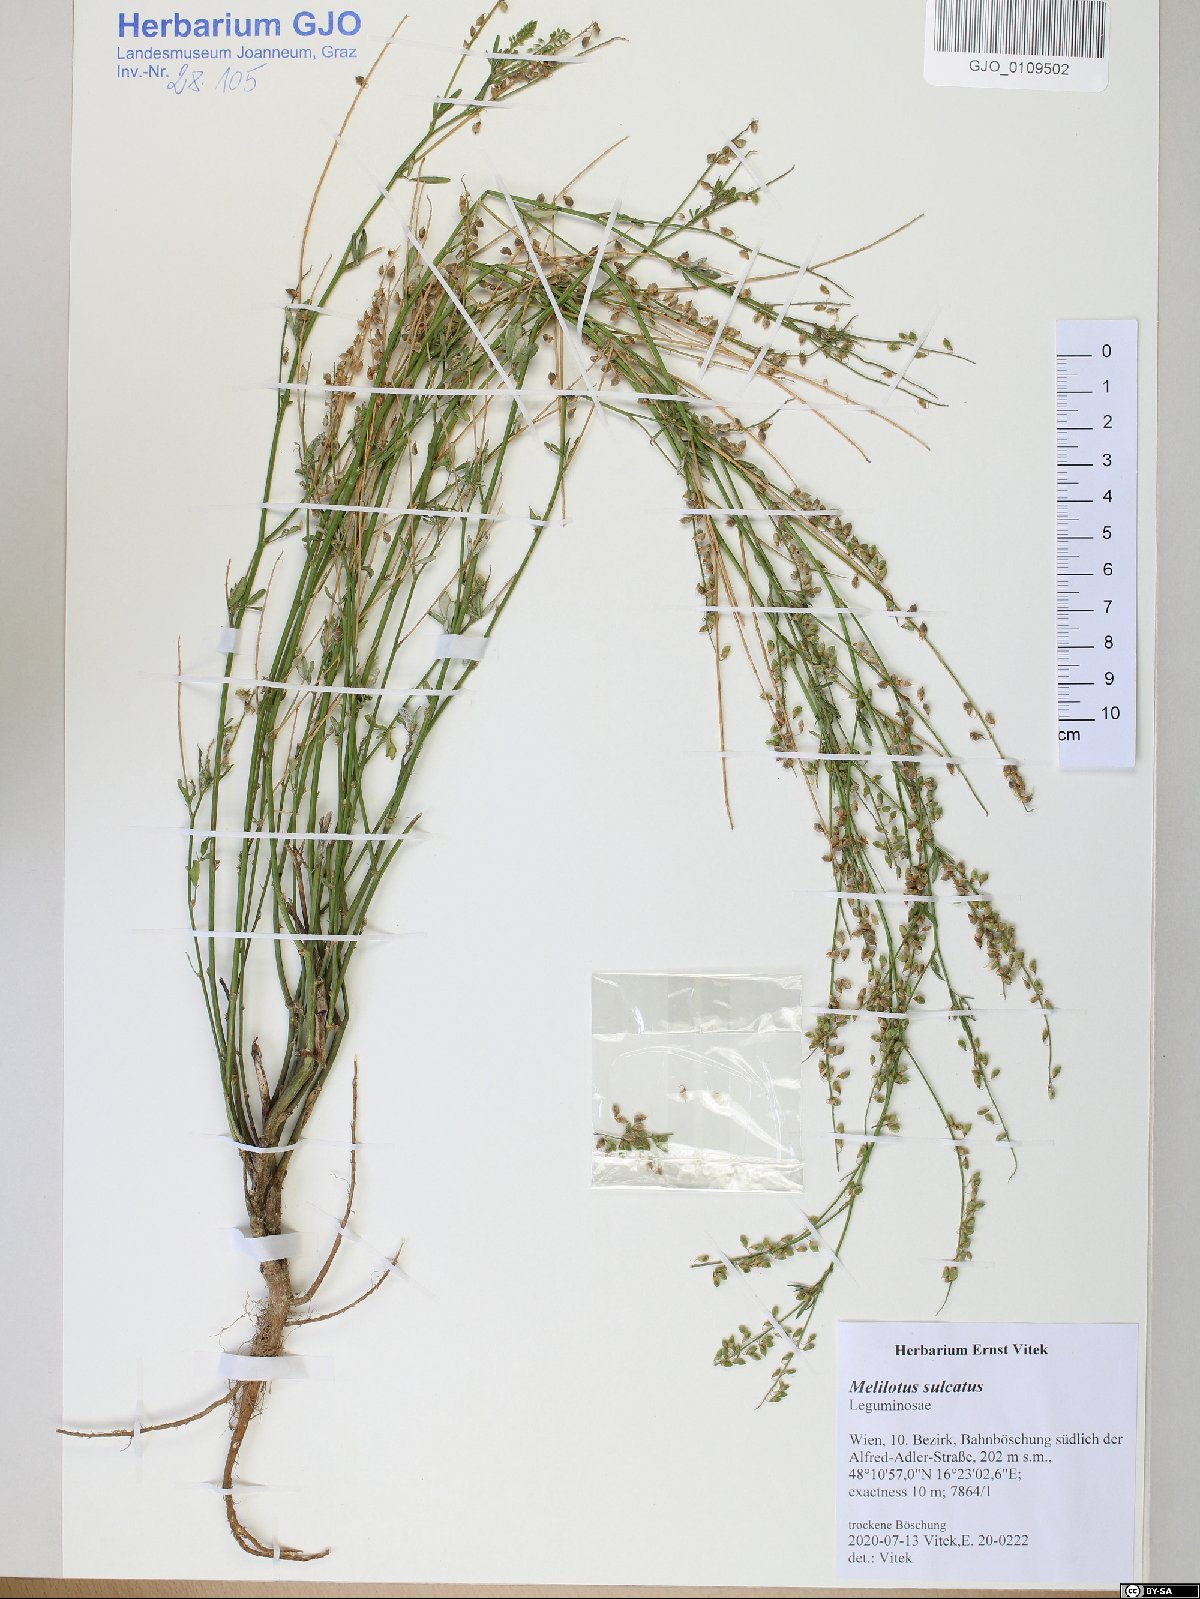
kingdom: Plantae
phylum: Tracheophyta
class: Magnoliopsida
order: Fabales
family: Fabaceae
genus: Melilotus
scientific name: Melilotus sulcatus
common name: Furrowed melilot
